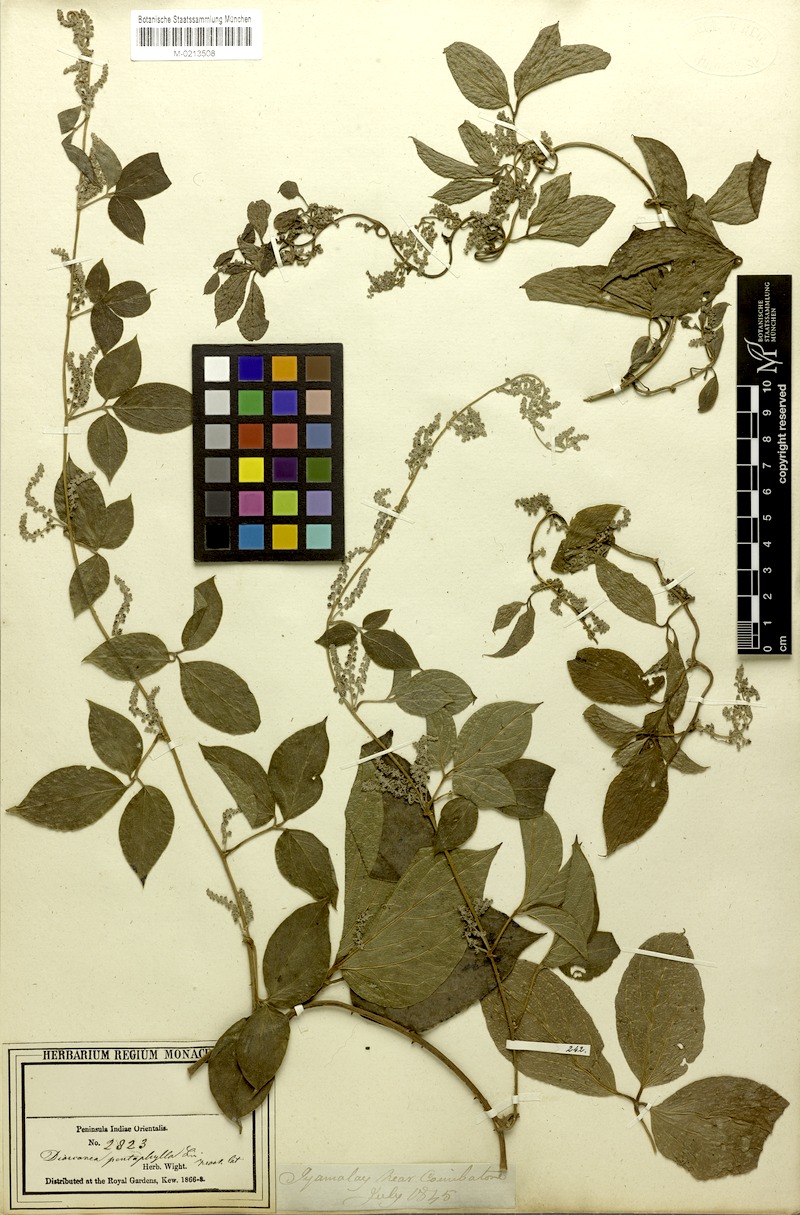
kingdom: Plantae
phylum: Tracheophyta
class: Liliopsida
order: Dioscoreales
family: Dioscoreaceae
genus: Dioscorea
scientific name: Dioscorea pentaphylla
